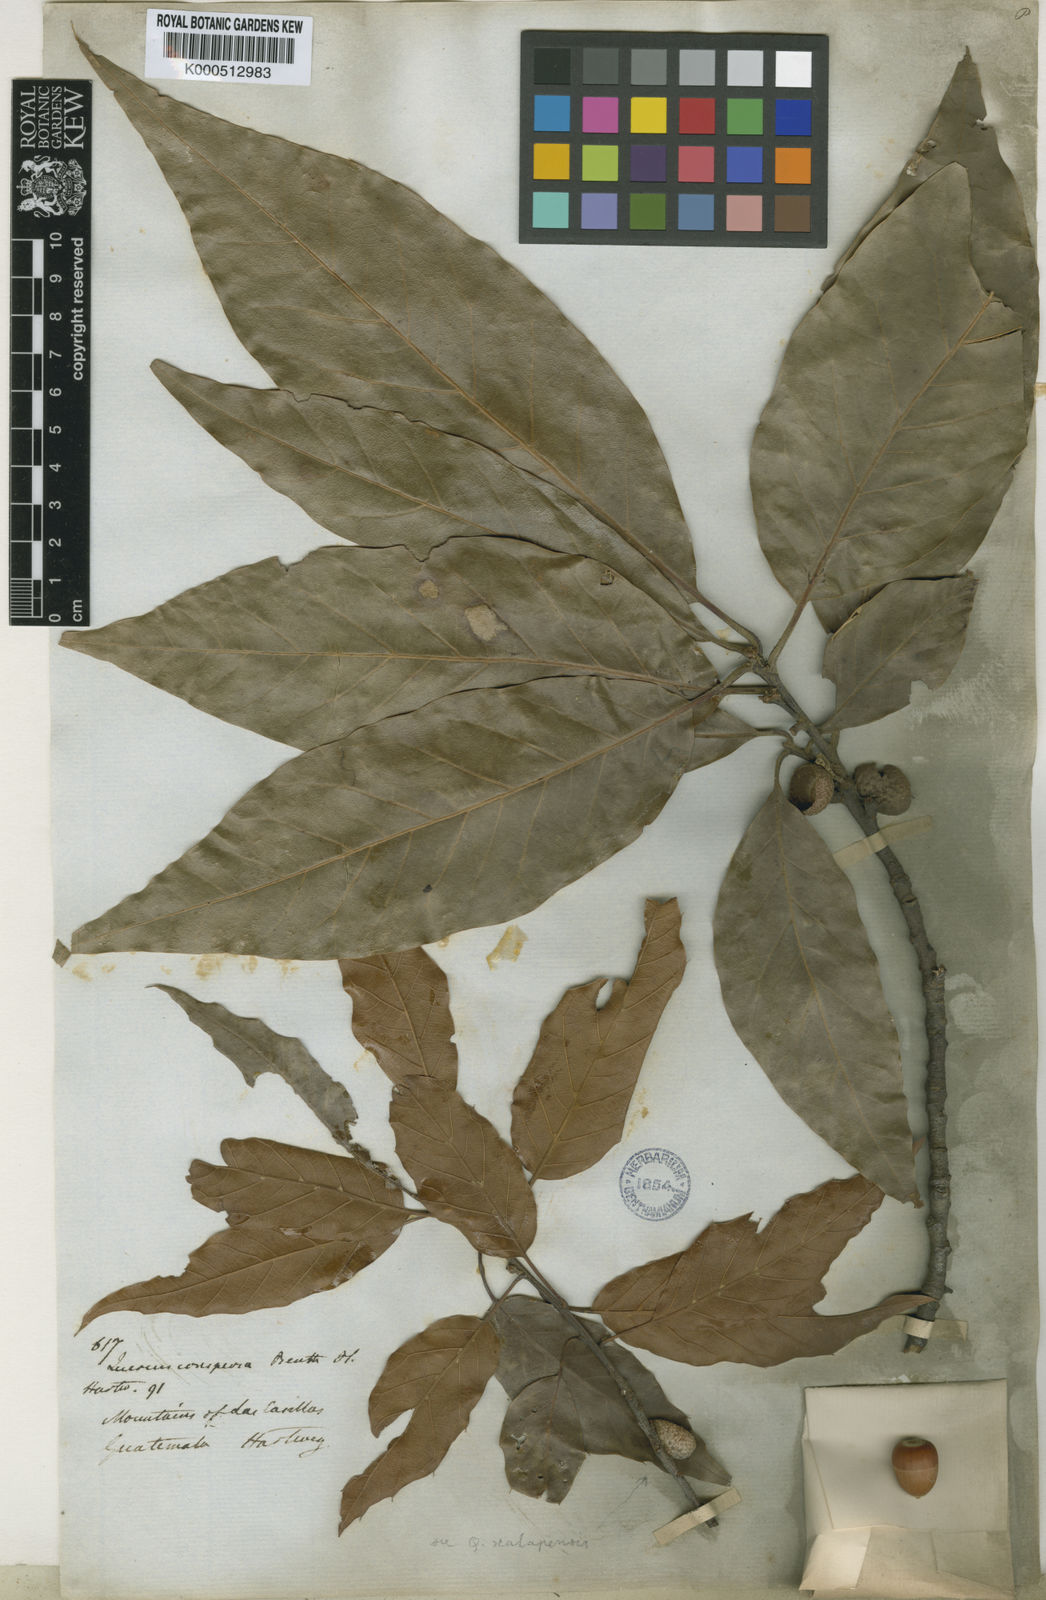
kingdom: Plantae
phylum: Tracheophyta
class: Magnoliopsida
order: Fagales
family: Fagaceae
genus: Quercus
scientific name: Quercus acutifolia
